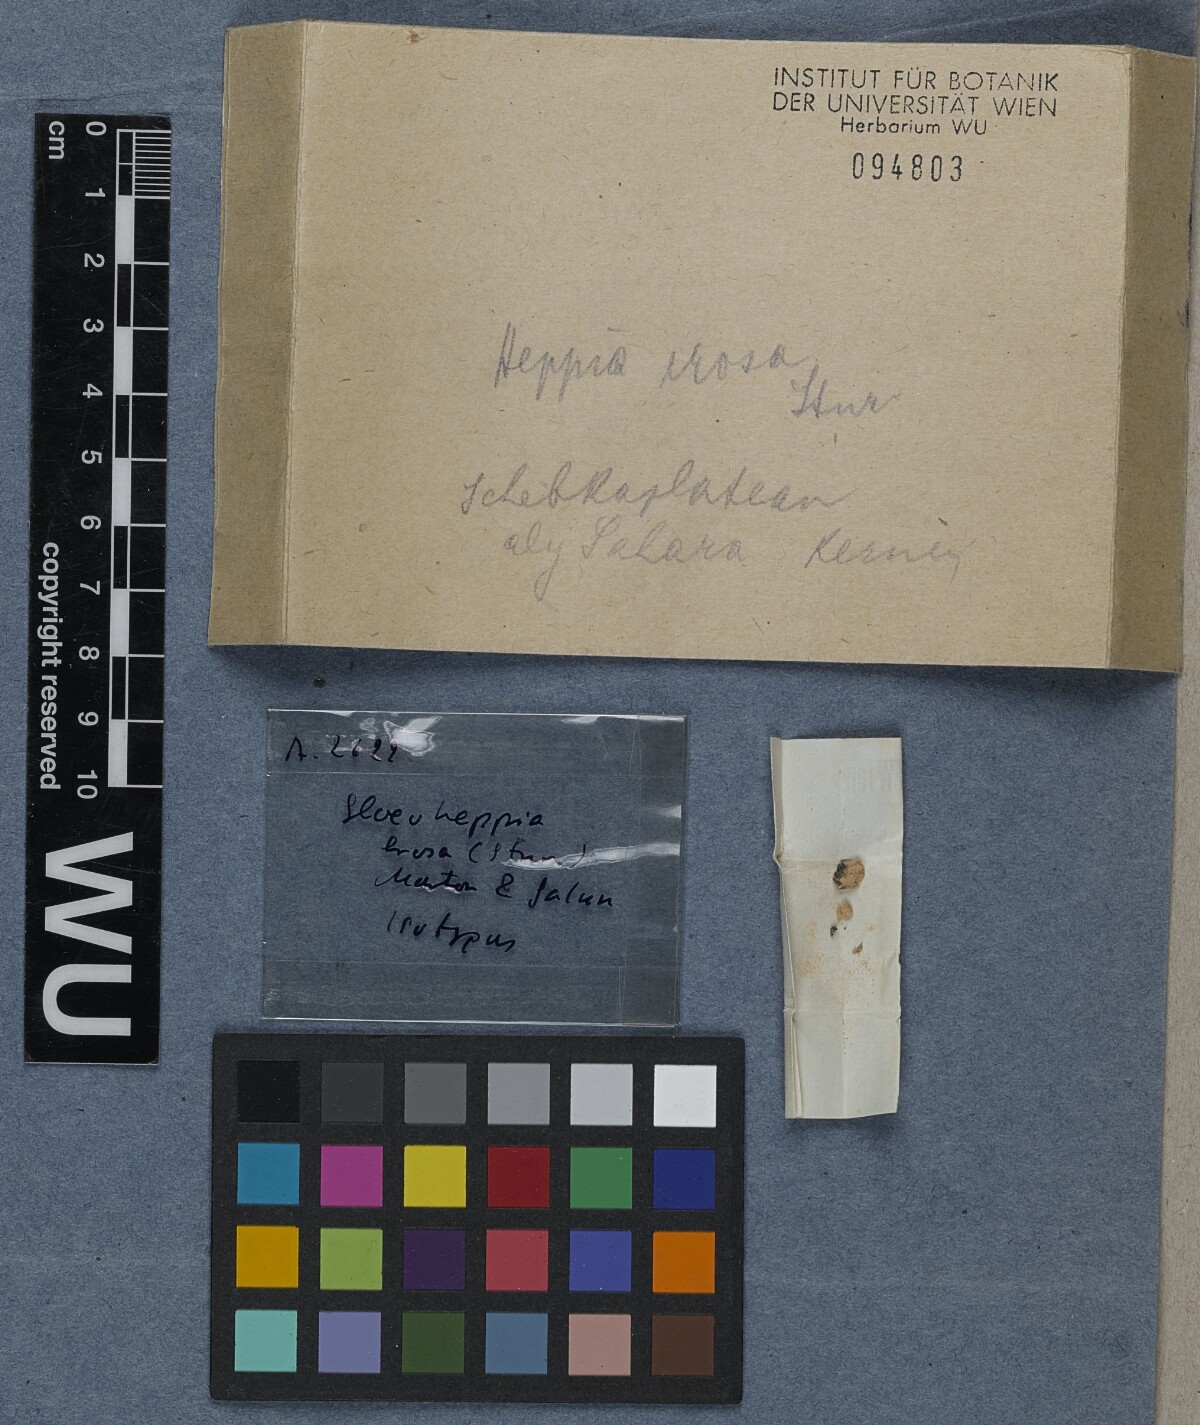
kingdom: Fungi
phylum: Ascomycota
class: Lichinomycetes
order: Lichinales
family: Gloeoheppiaceae
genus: Gloeoheppia
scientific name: Gloeoheppia erosa
